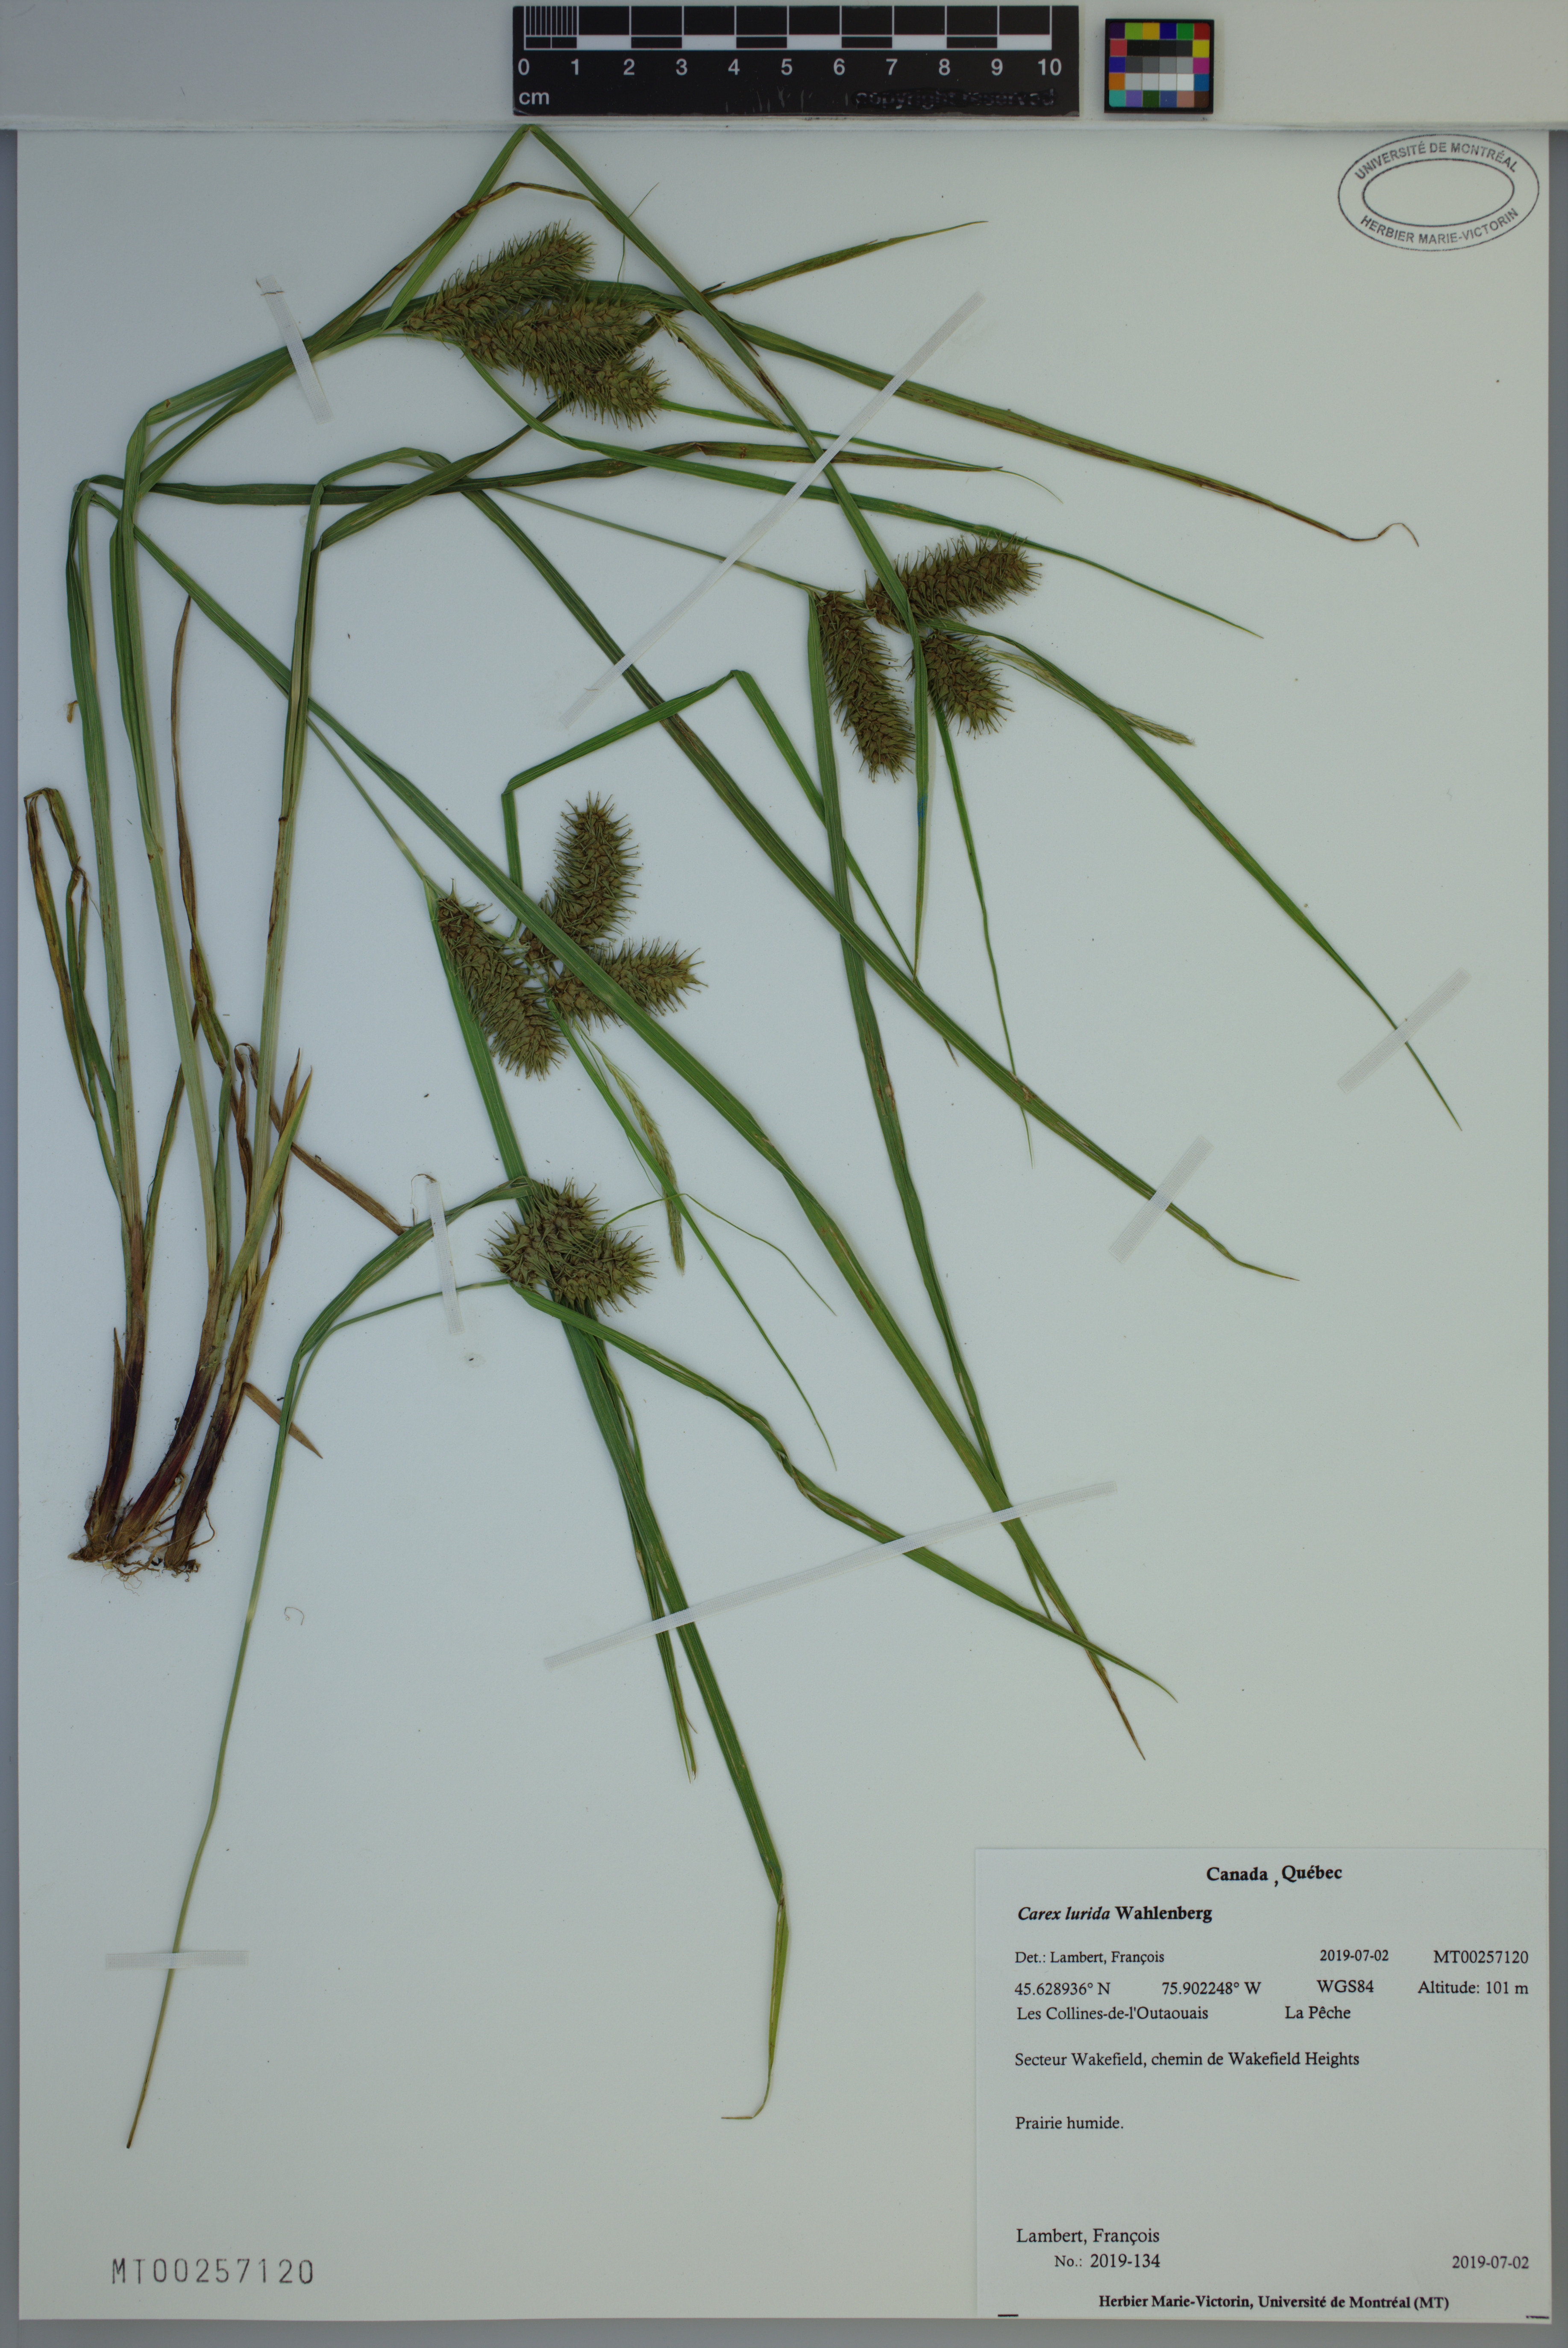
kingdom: Plantae
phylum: Tracheophyta
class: Liliopsida
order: Poales
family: Cyperaceae
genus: Carex
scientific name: Carex lurida
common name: Sallow sedge
